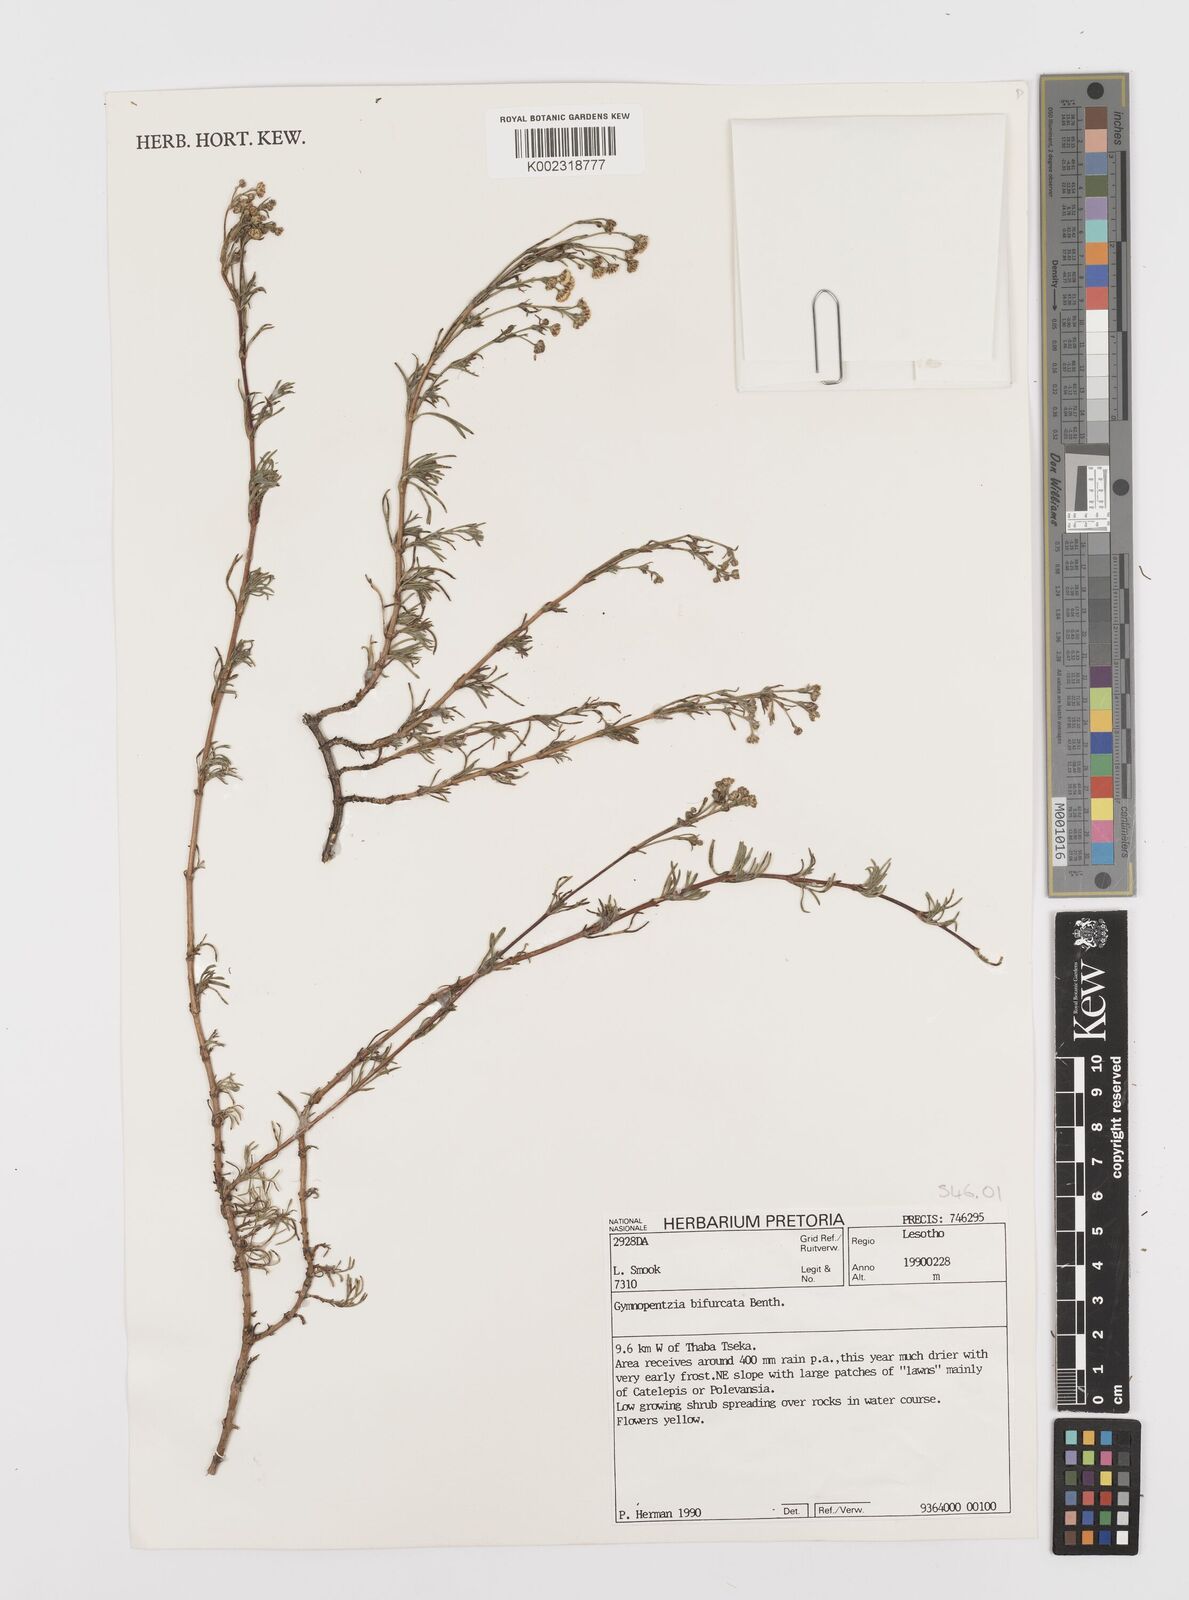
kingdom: Plantae
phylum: Tracheophyta
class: Magnoliopsida
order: Asterales
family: Asteraceae
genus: Gymnopentzia
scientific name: Gymnopentzia bifurcata
